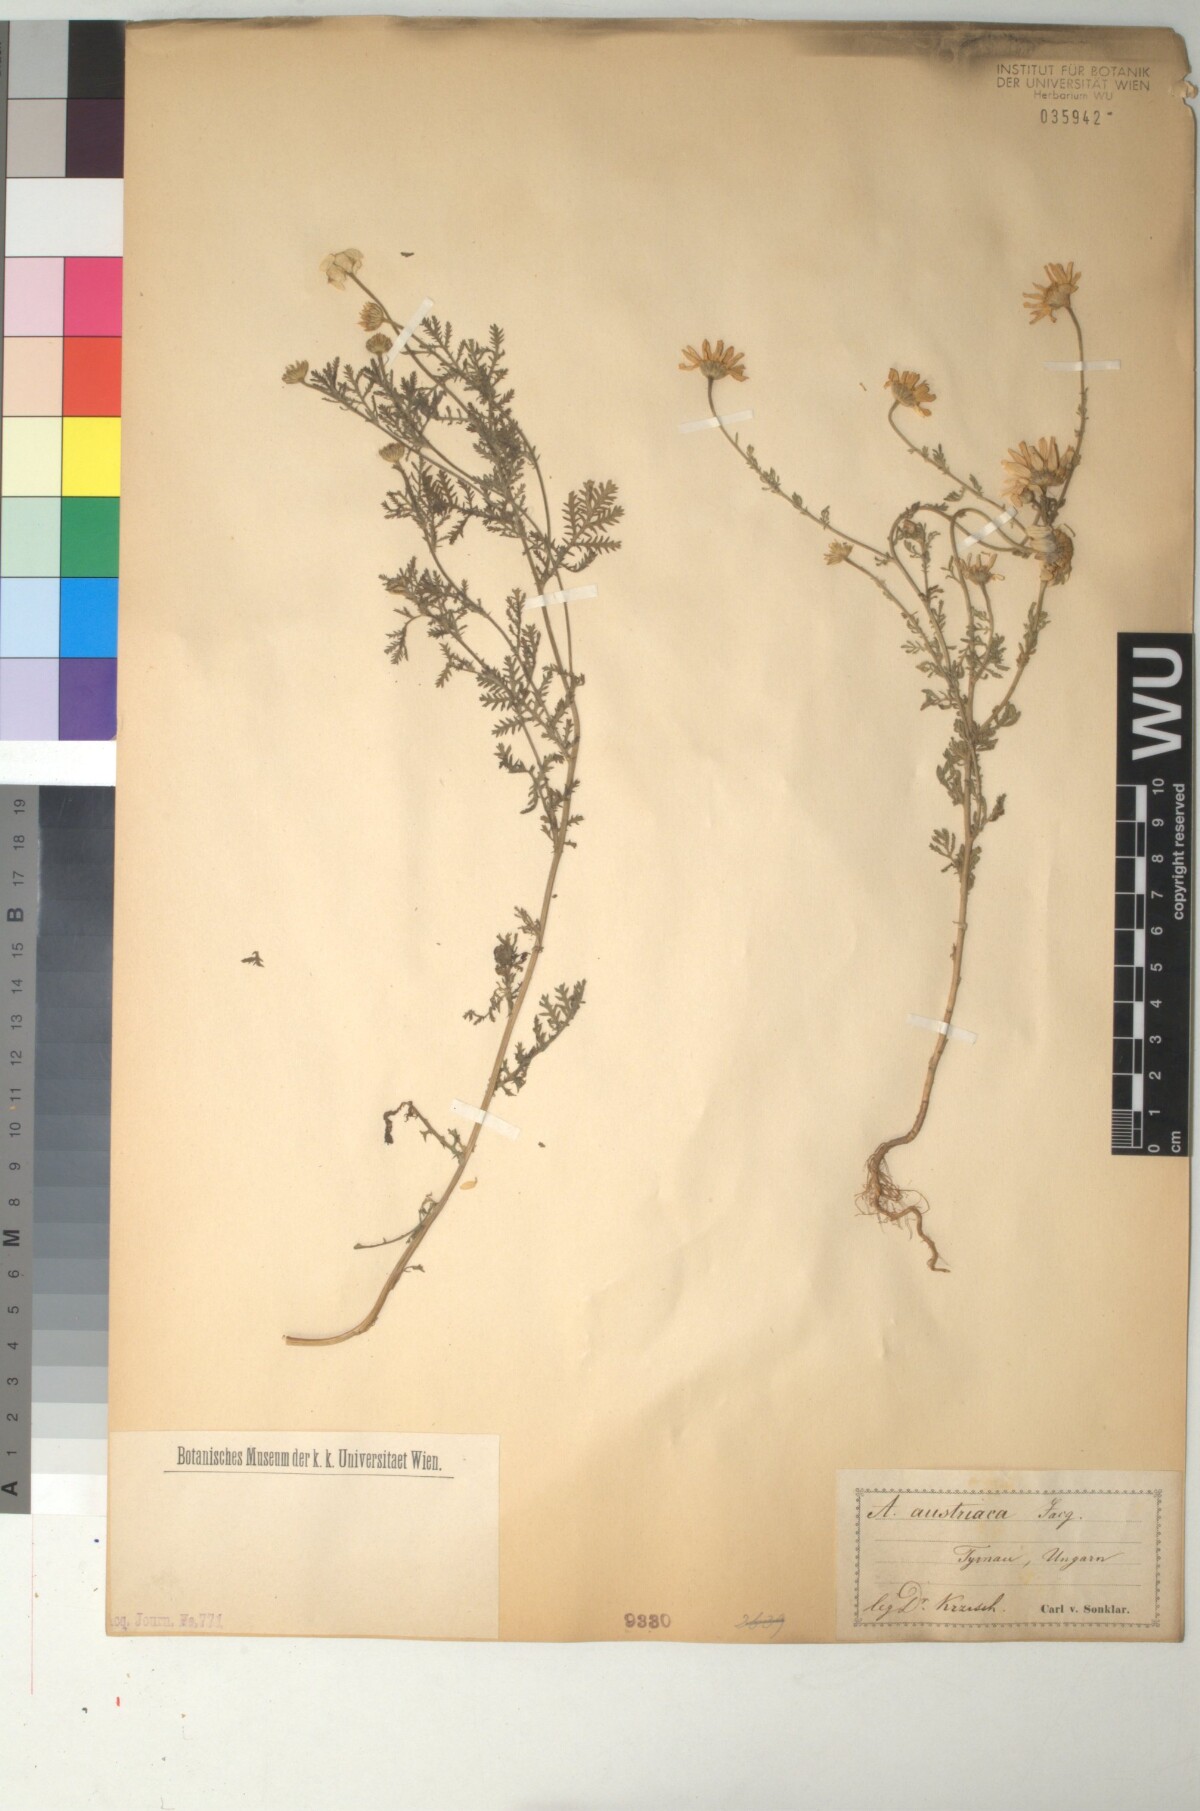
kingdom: Plantae
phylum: Tracheophyta
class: Magnoliopsida
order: Asterales
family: Asteraceae
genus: Cota
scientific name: Cota austriaca
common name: Austrian chamomile
